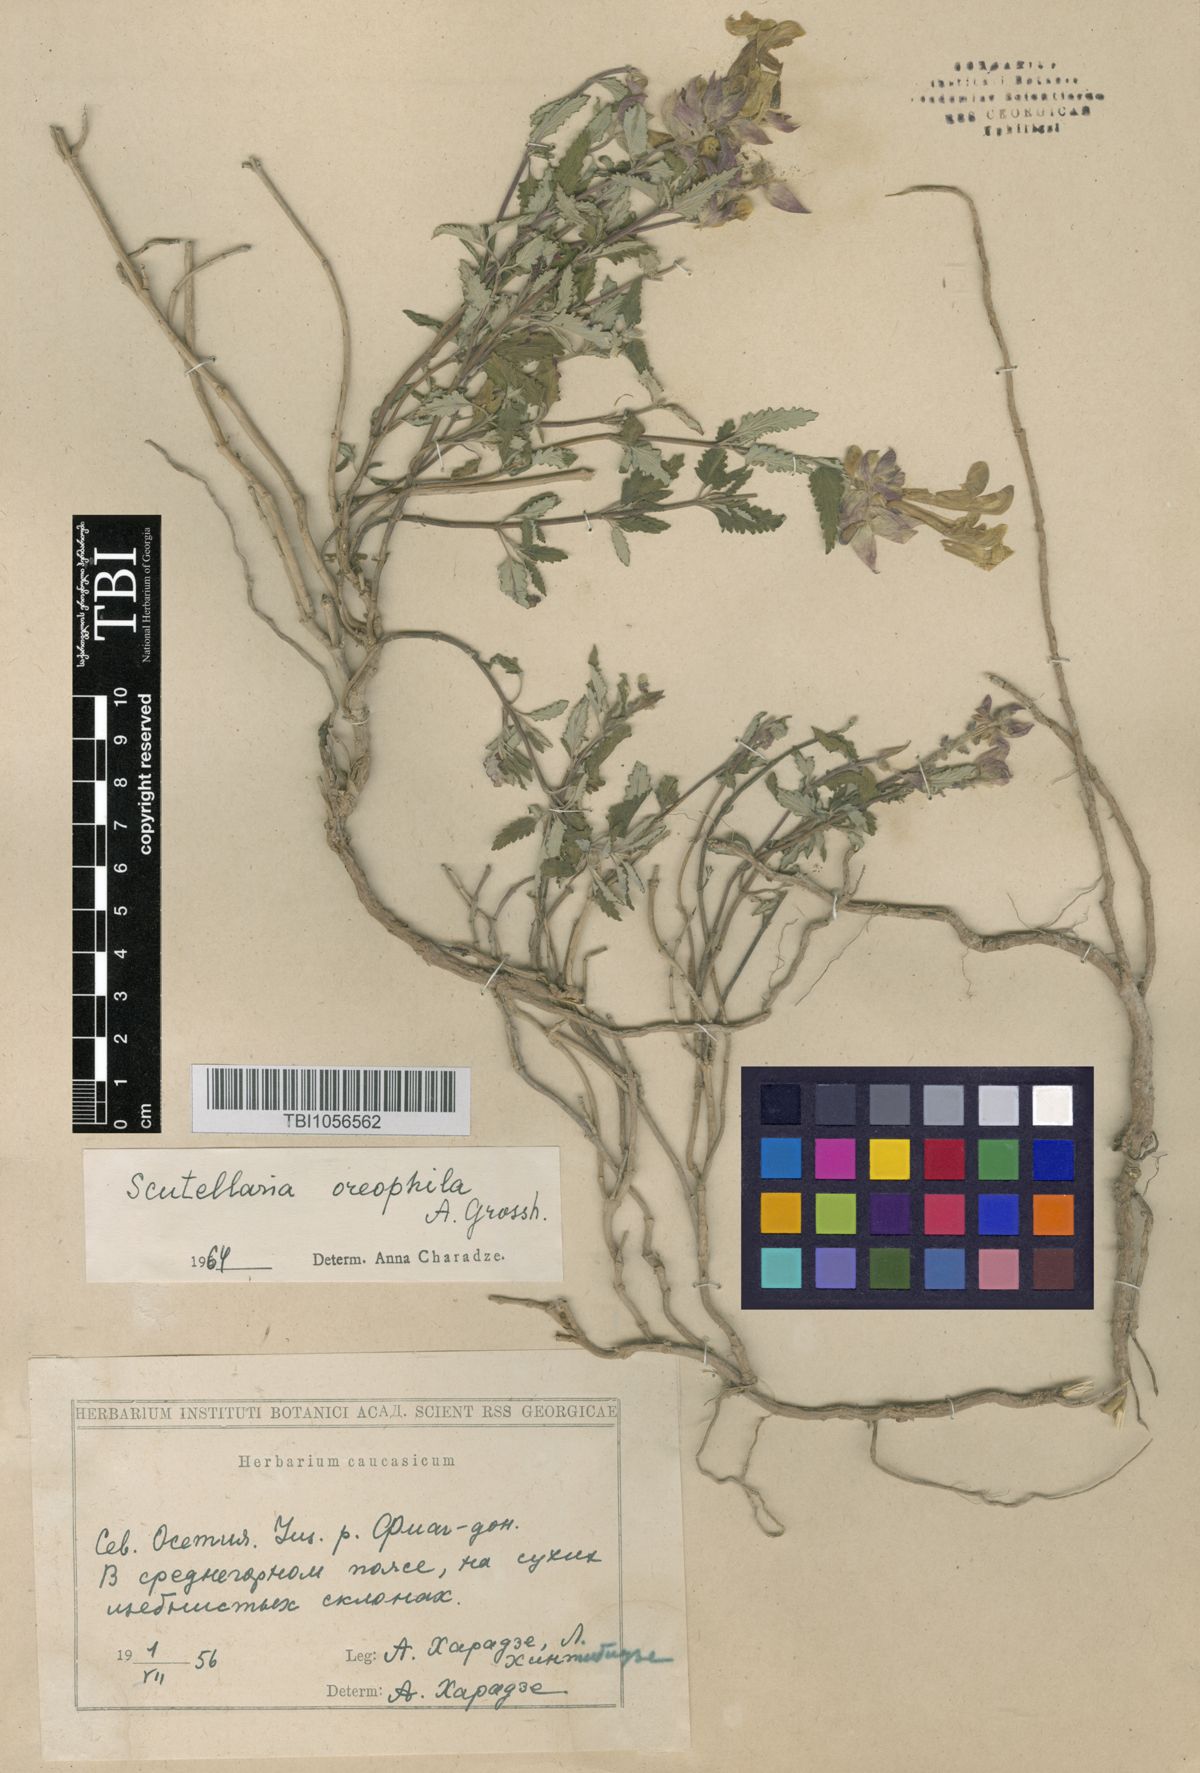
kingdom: Plantae
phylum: Tracheophyta
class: Magnoliopsida
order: Lamiales
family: Lamiaceae
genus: Scutellaria
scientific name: Scutellaria oreophila
